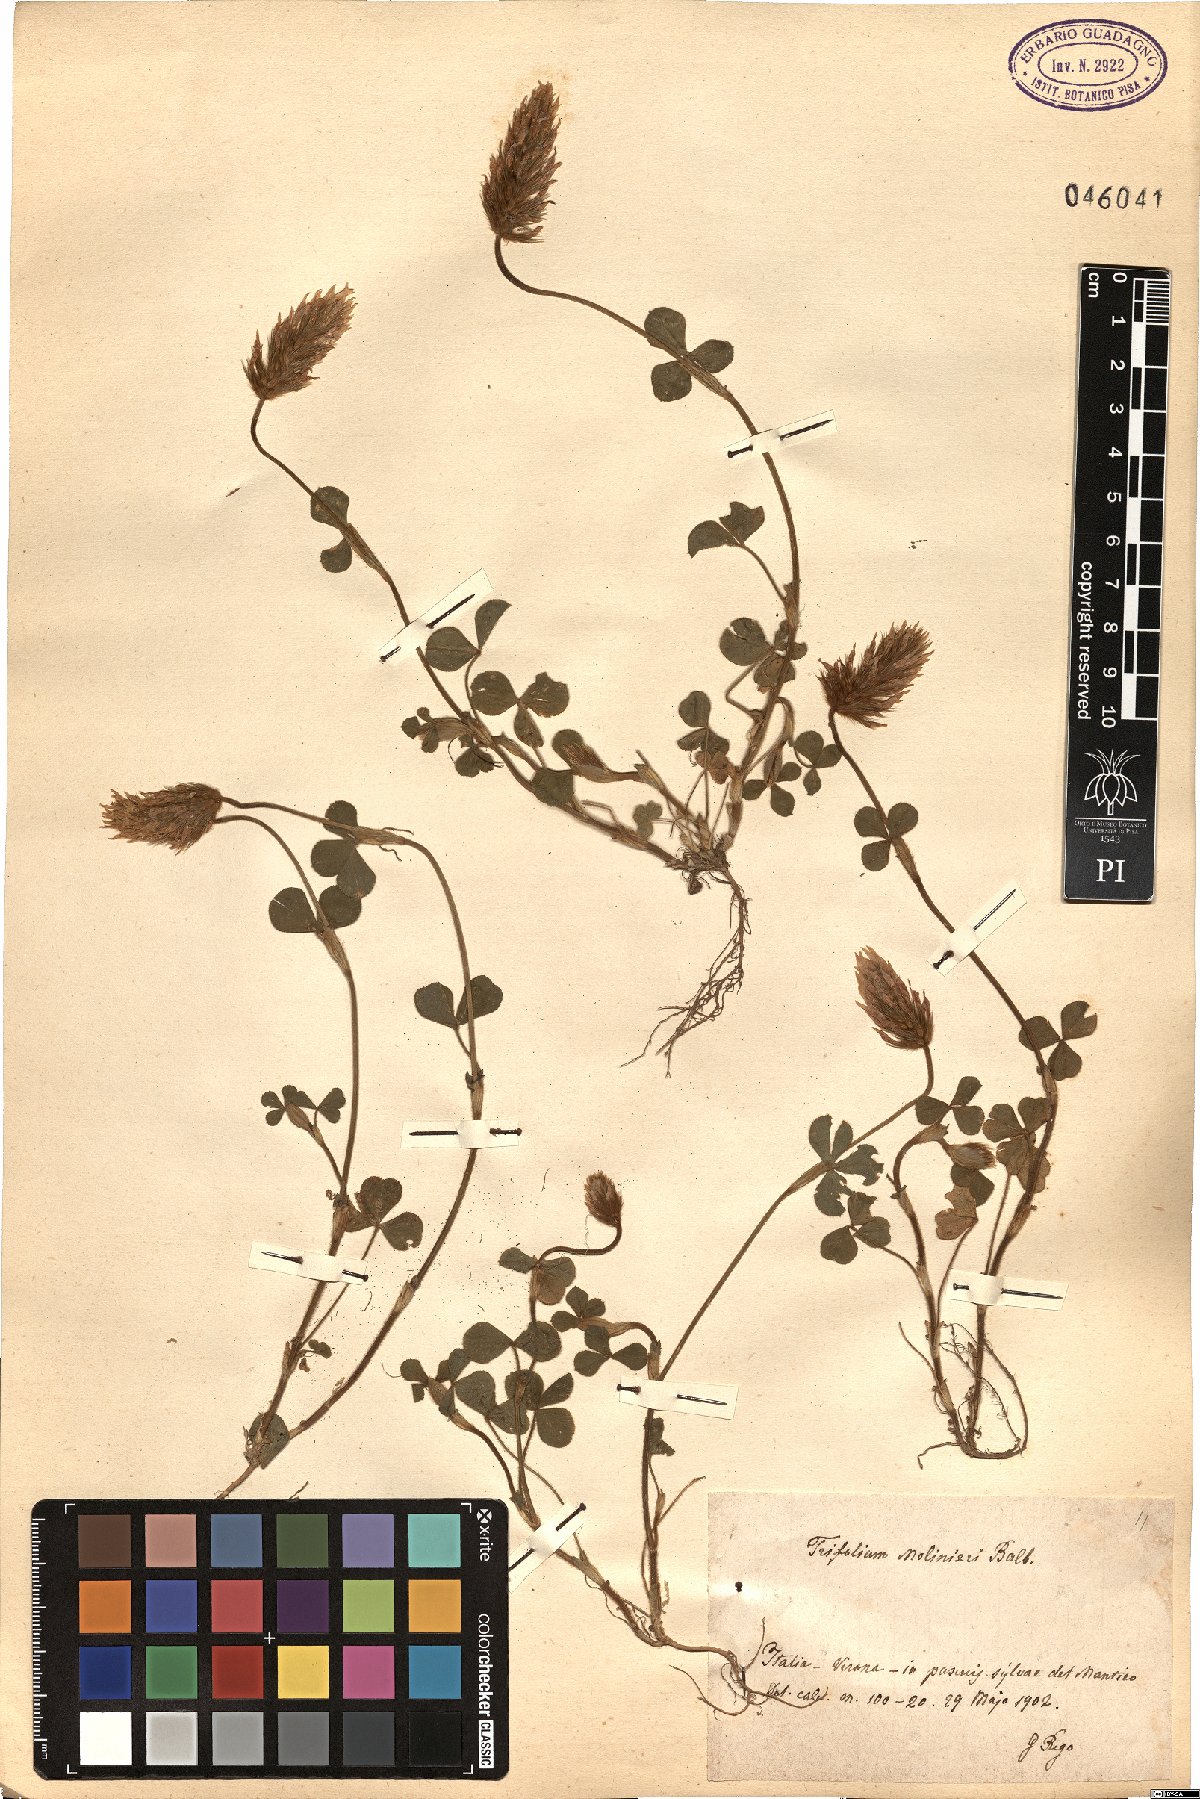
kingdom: Plantae
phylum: Tracheophyta
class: Magnoliopsida
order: Fabales
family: Fabaceae
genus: Trifolium
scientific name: Trifolium incarnatum
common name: Crimson clover
